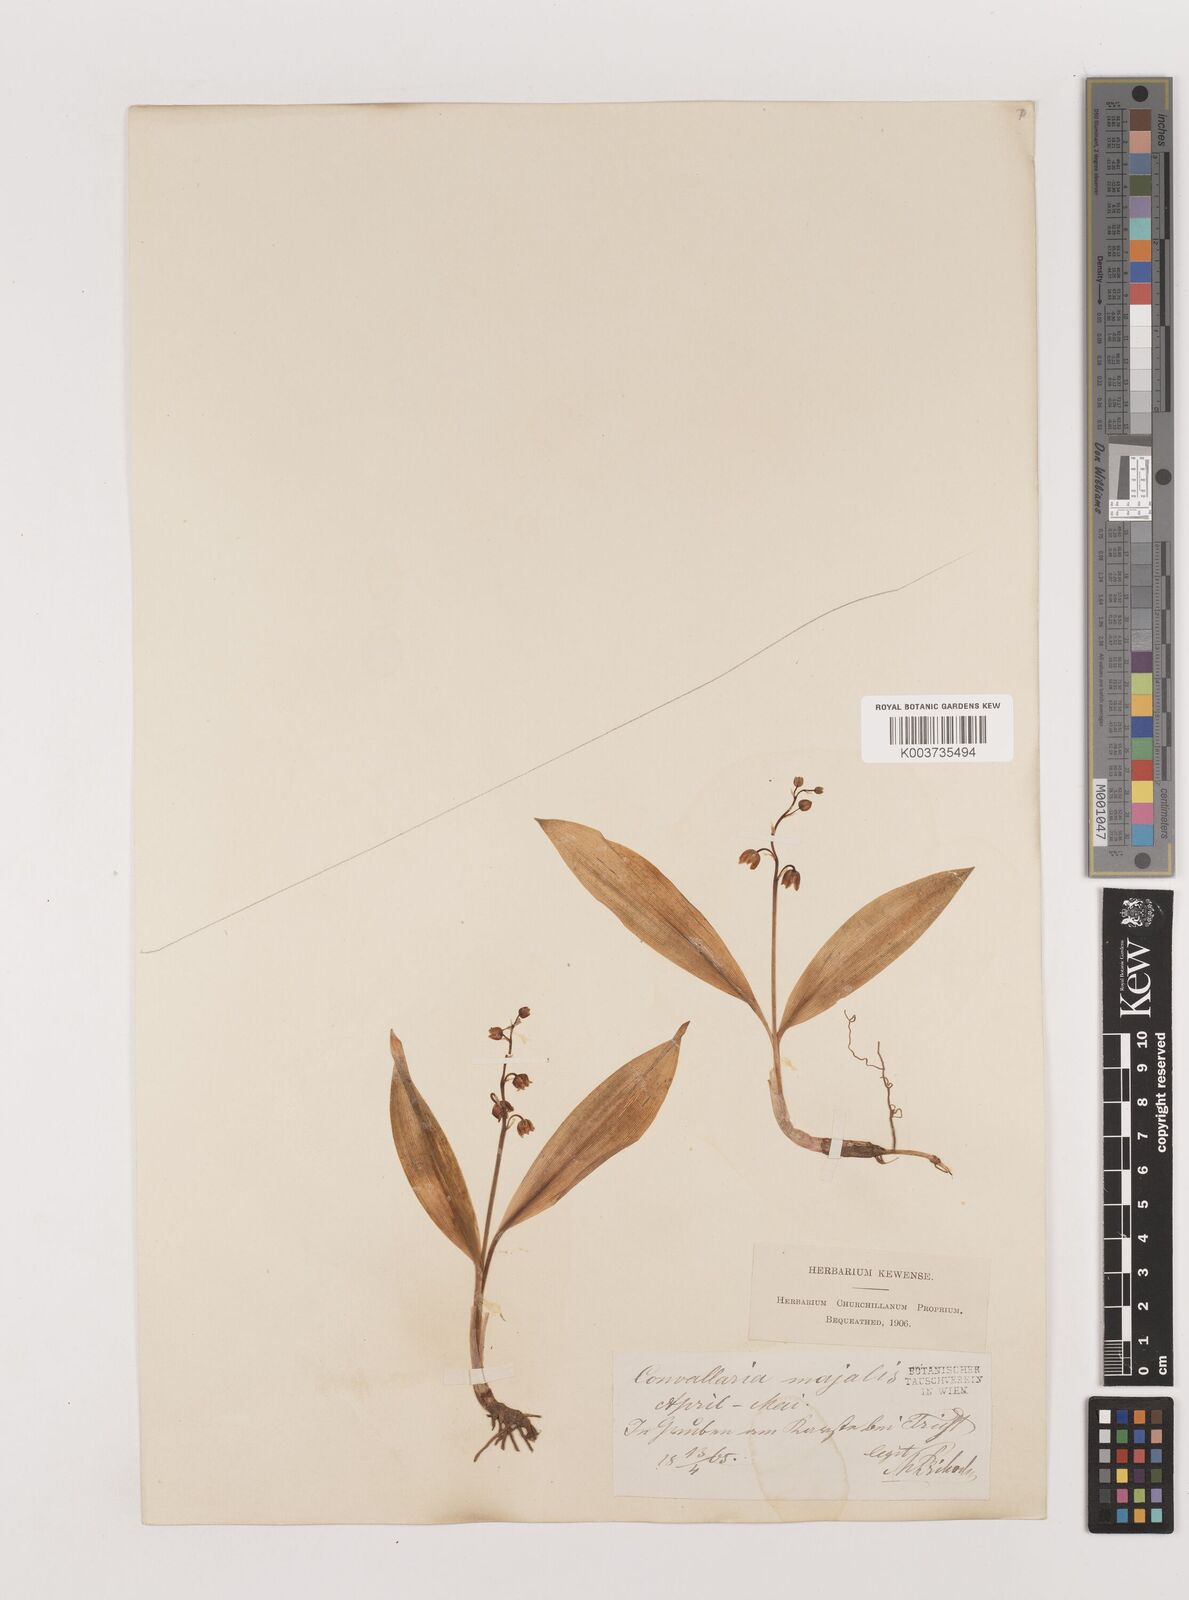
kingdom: Plantae
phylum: Tracheophyta
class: Liliopsida
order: Asparagales
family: Asparagaceae
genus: Convallaria
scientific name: Convallaria majalis
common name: Lily-of-the-valley
